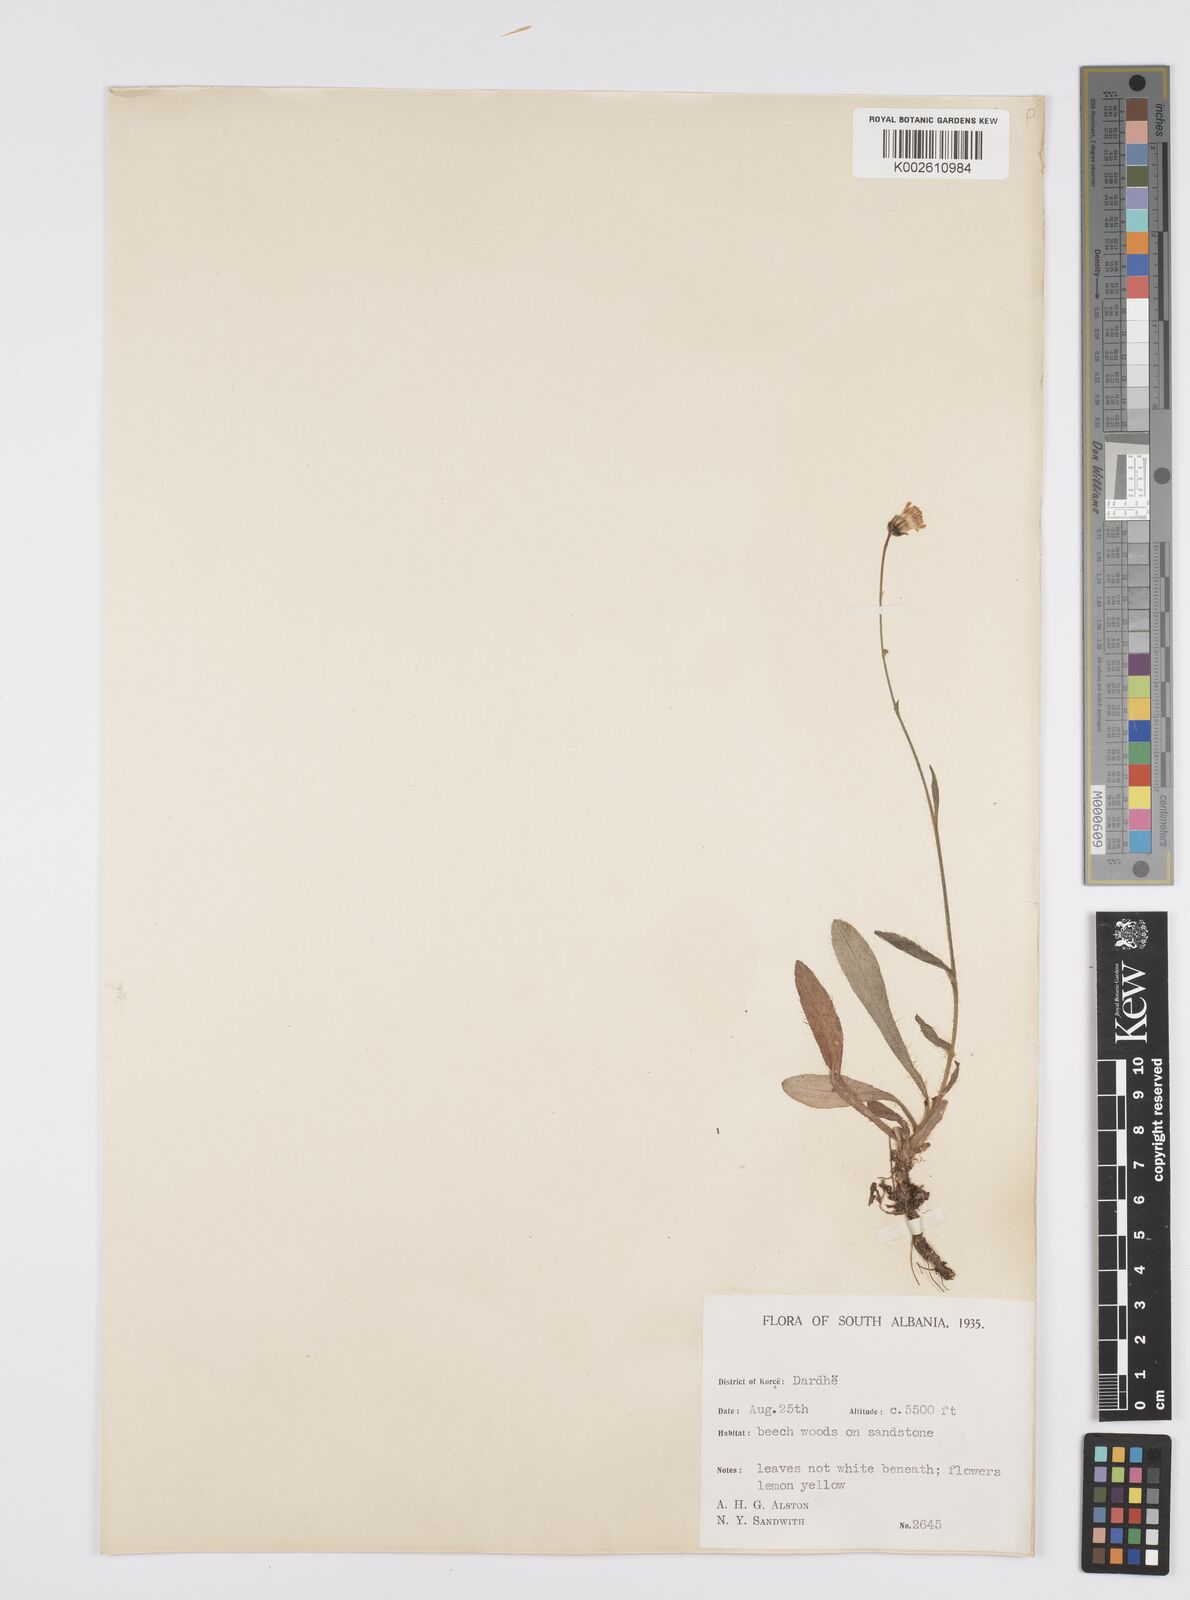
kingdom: Plantae
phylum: Tracheophyta
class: Magnoliopsida
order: Asterales
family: Asteraceae
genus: Pilosella
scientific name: Pilosella piloselloides
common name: Glaucous king-devil
